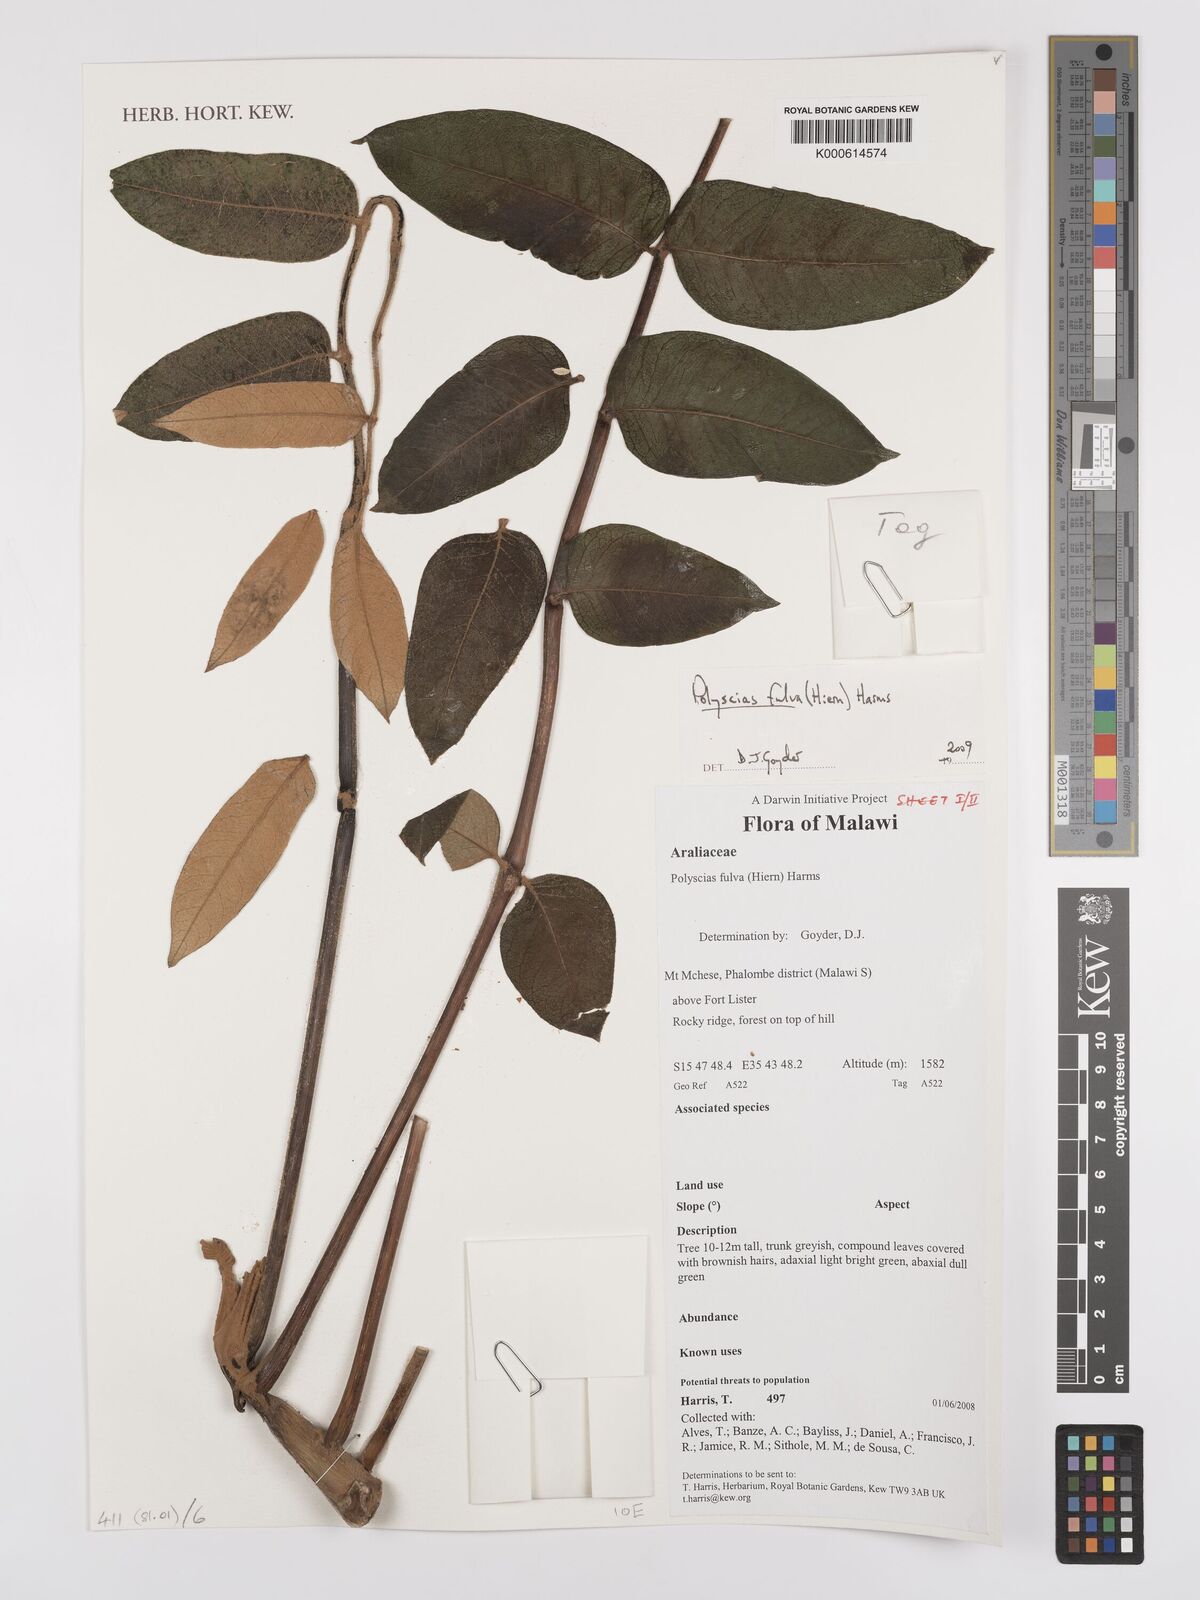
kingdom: Plantae
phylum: Tracheophyta
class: Magnoliopsida
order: Apiales
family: Araliaceae
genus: Polyscias
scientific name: Polyscias fulva
